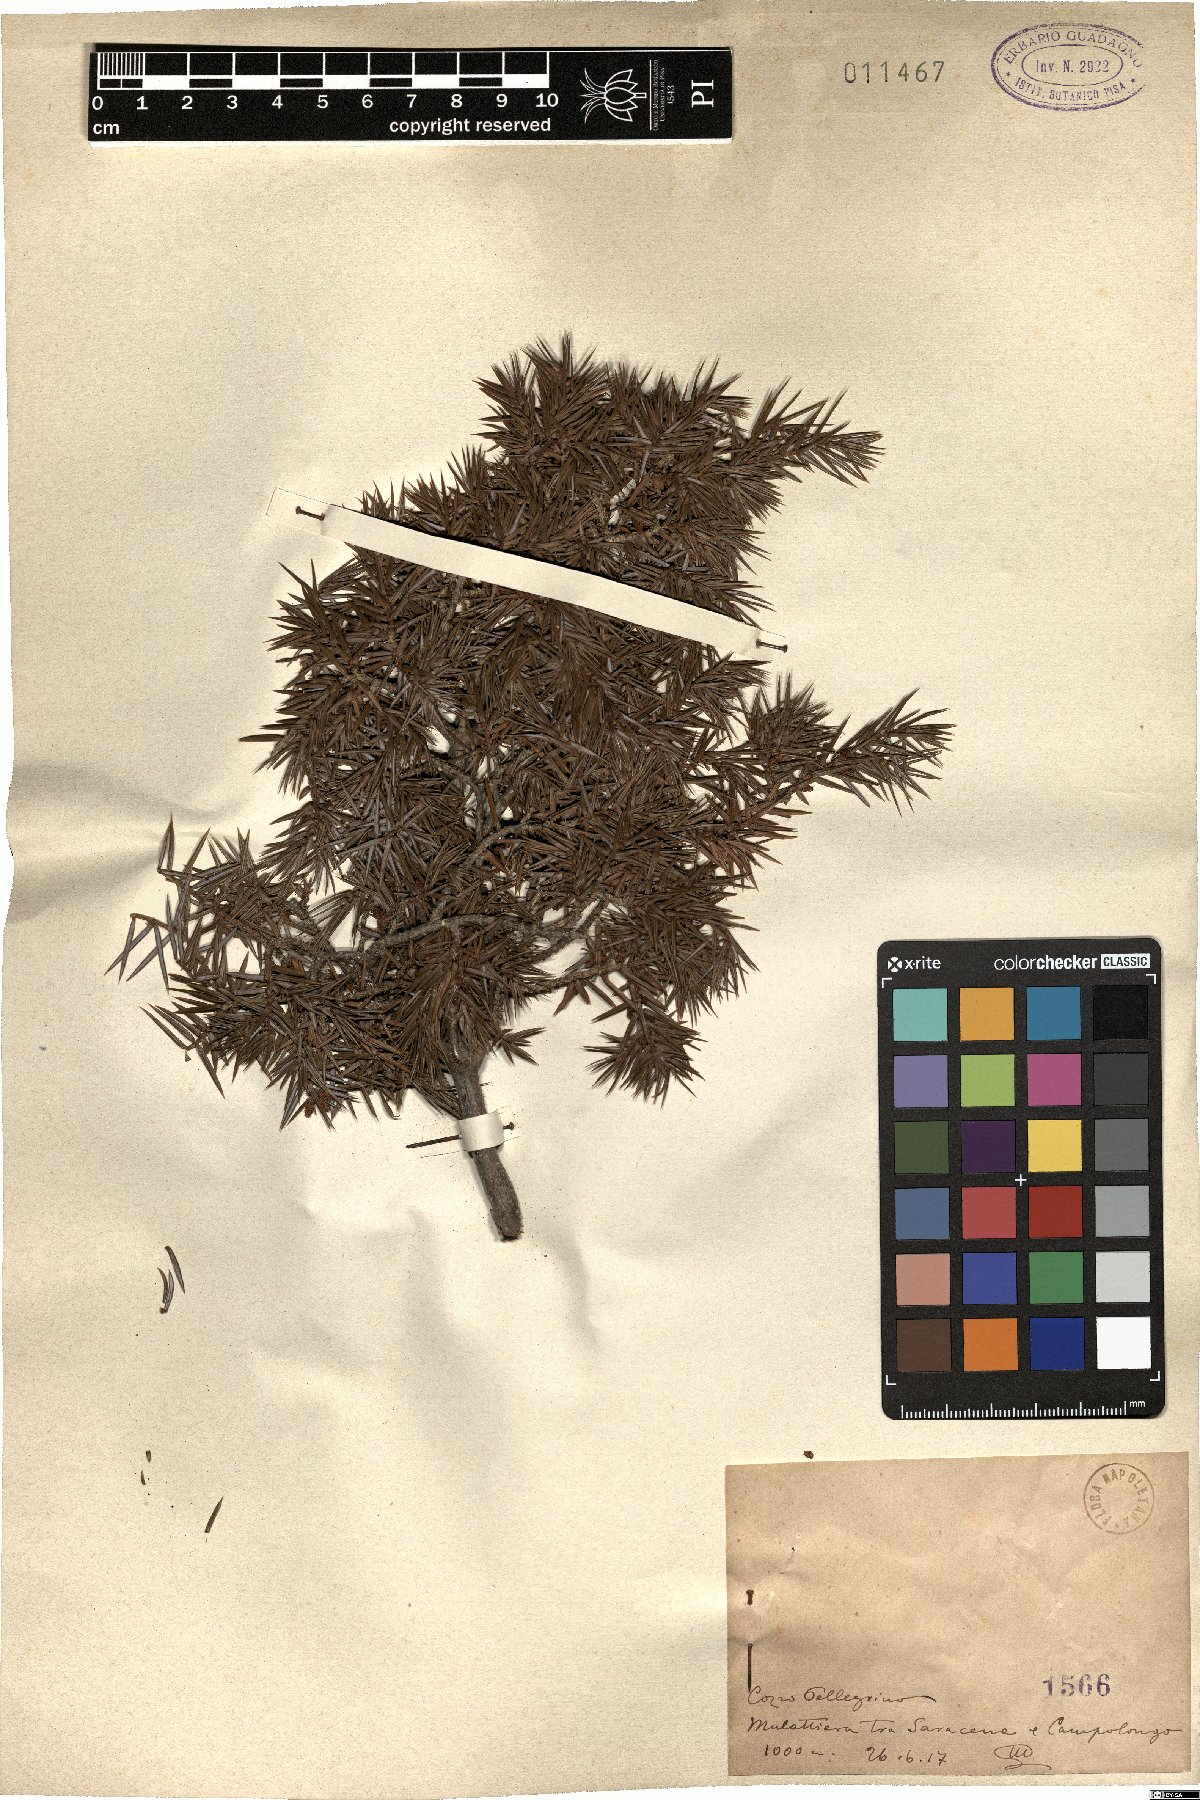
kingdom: Plantae
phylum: Tracheophyta
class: Pinopsida
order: Pinales
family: Cupressaceae
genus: Juniperus
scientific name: Juniperus communis
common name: Common juniper
